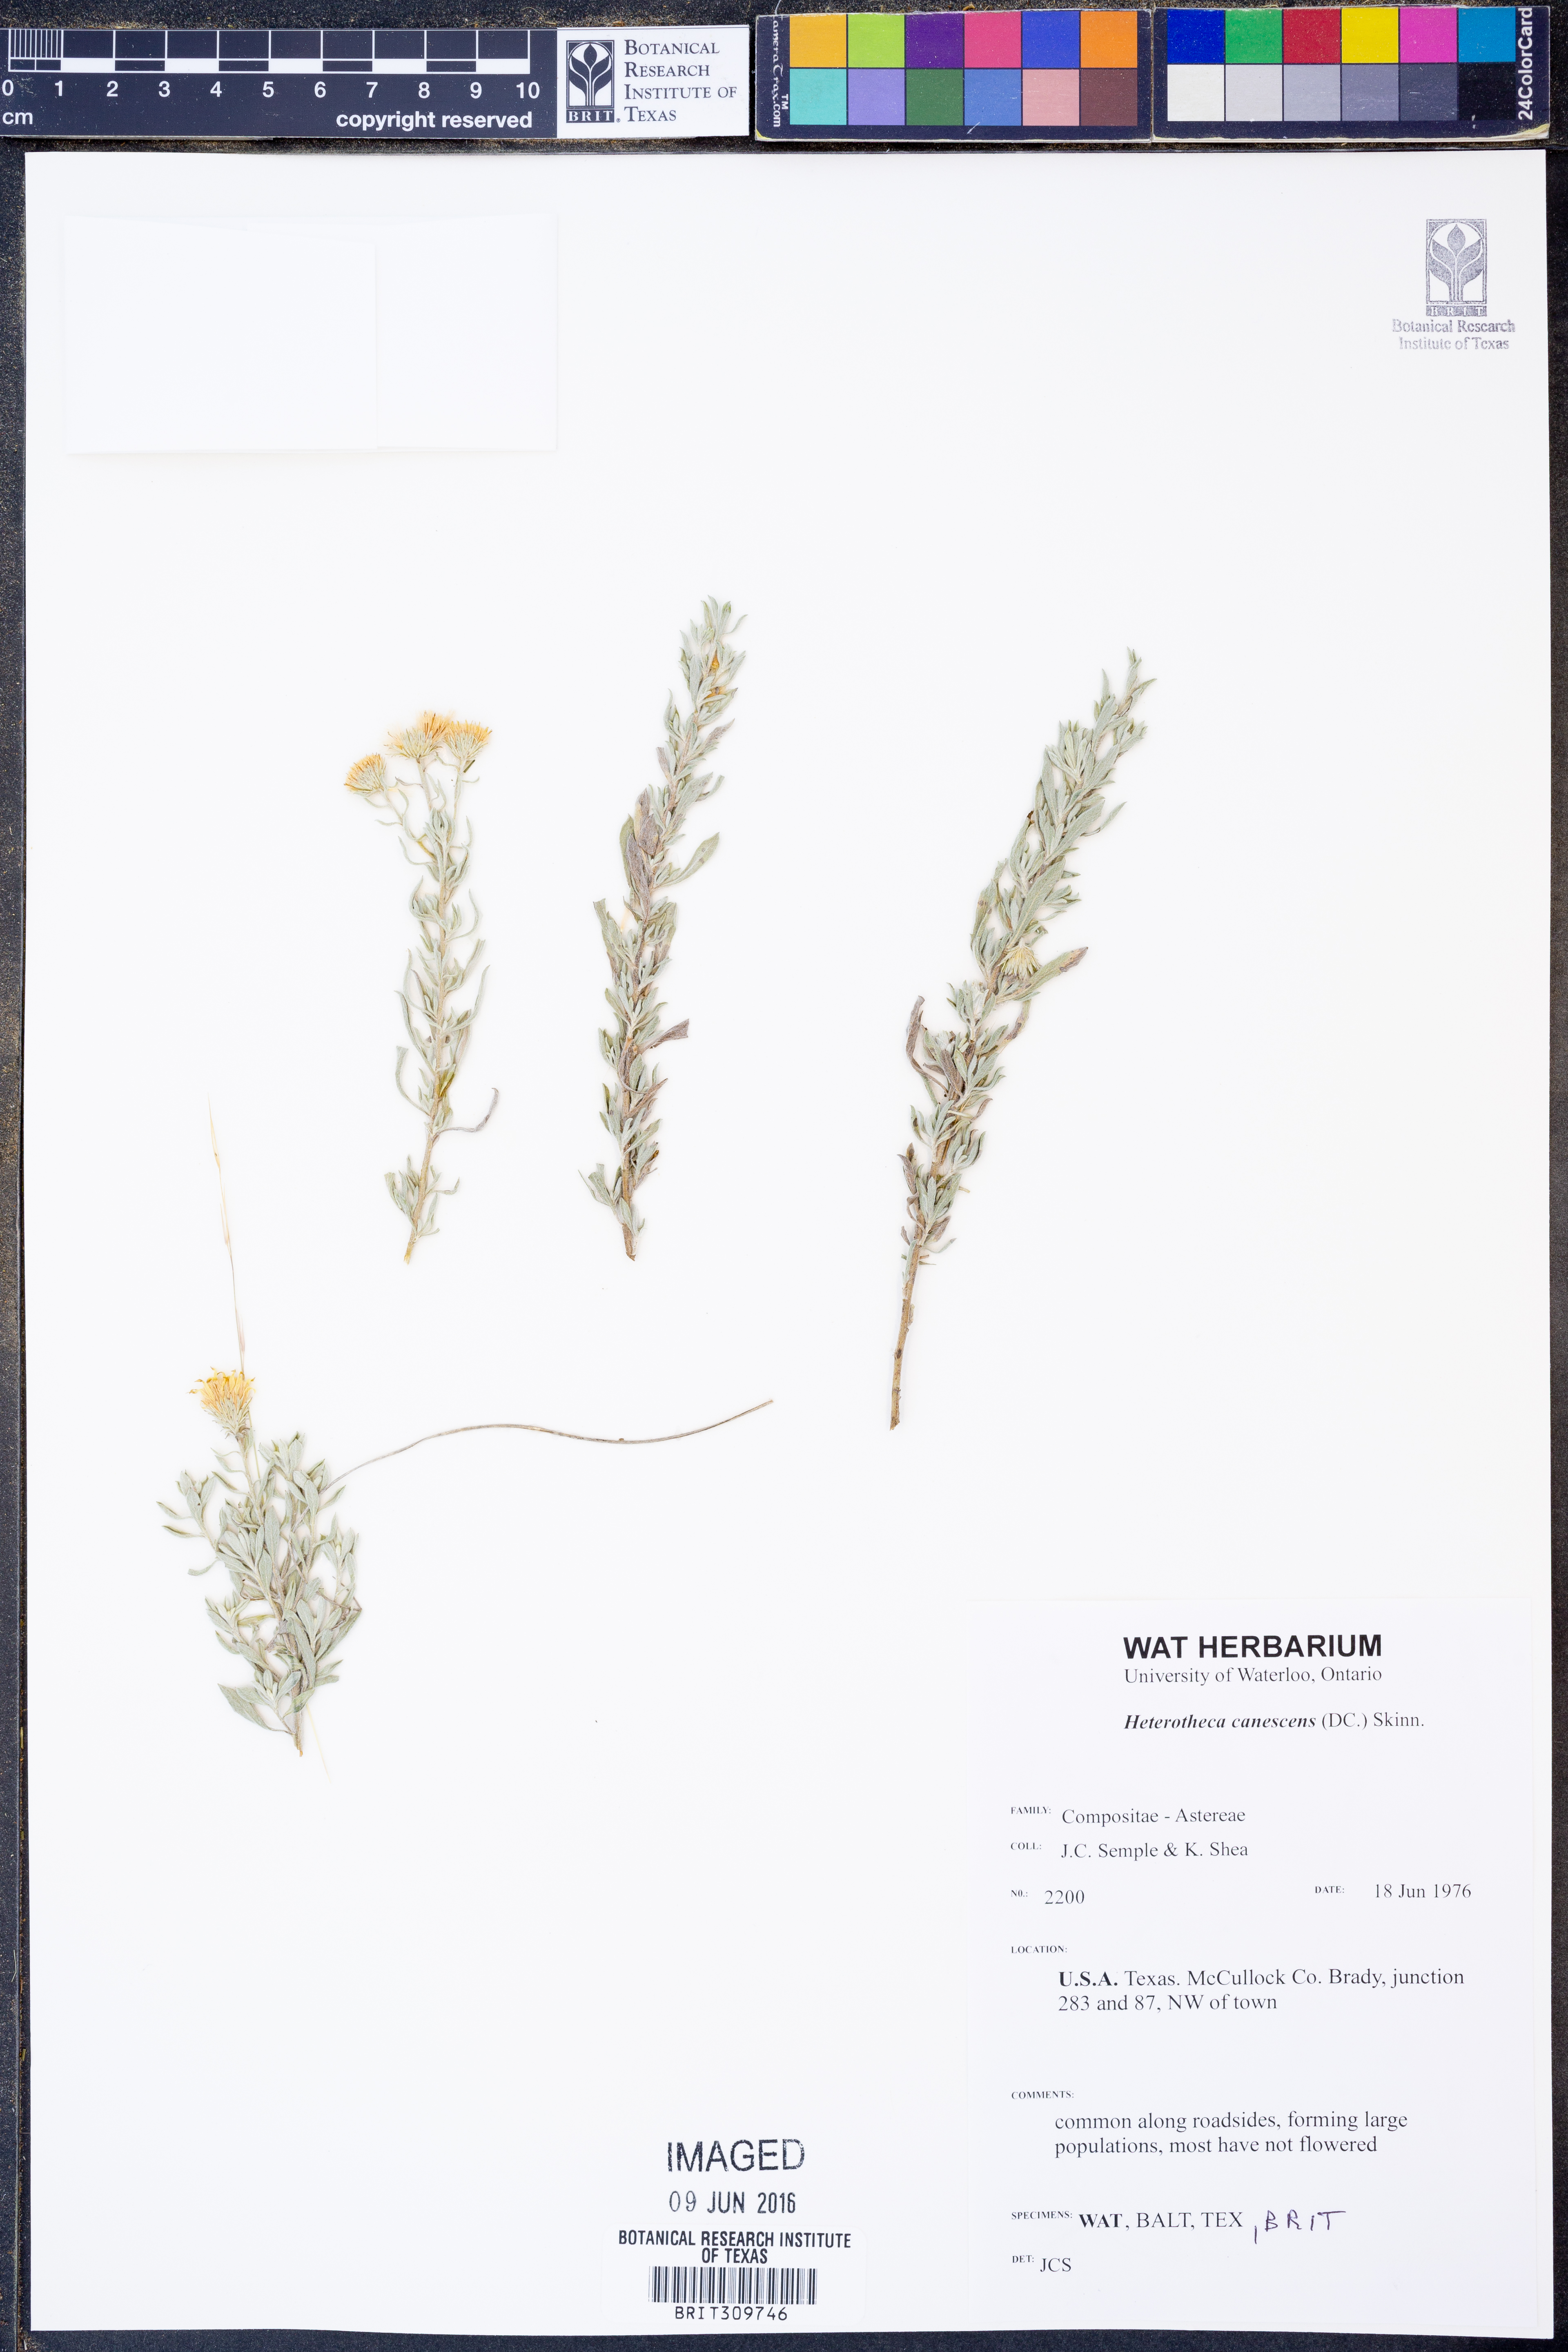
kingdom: Plantae
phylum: Tracheophyta
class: Magnoliopsida
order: Asterales
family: Asteraceae
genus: Heterotheca
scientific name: Heterotheca canescens
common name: Hoary golden-aster
